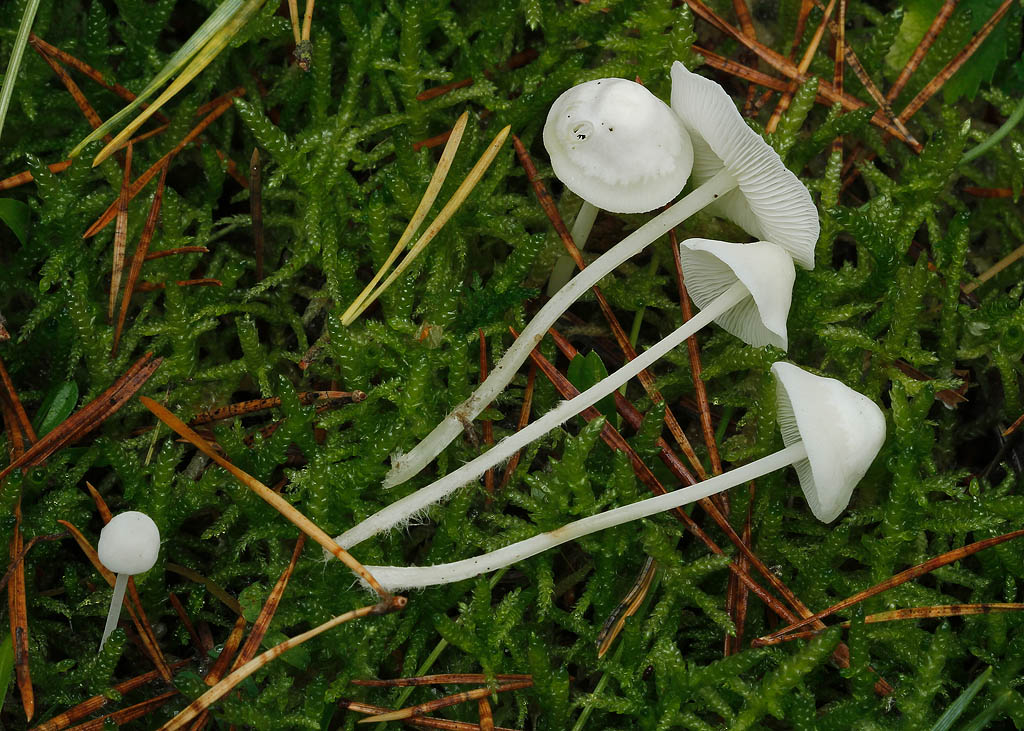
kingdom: Fungi
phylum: Basidiomycota
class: Agaricomycetes
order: Agaricales
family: Mycenaceae
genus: Hemimycena
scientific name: Hemimycena cucullata
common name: tætbladet huesvamp
